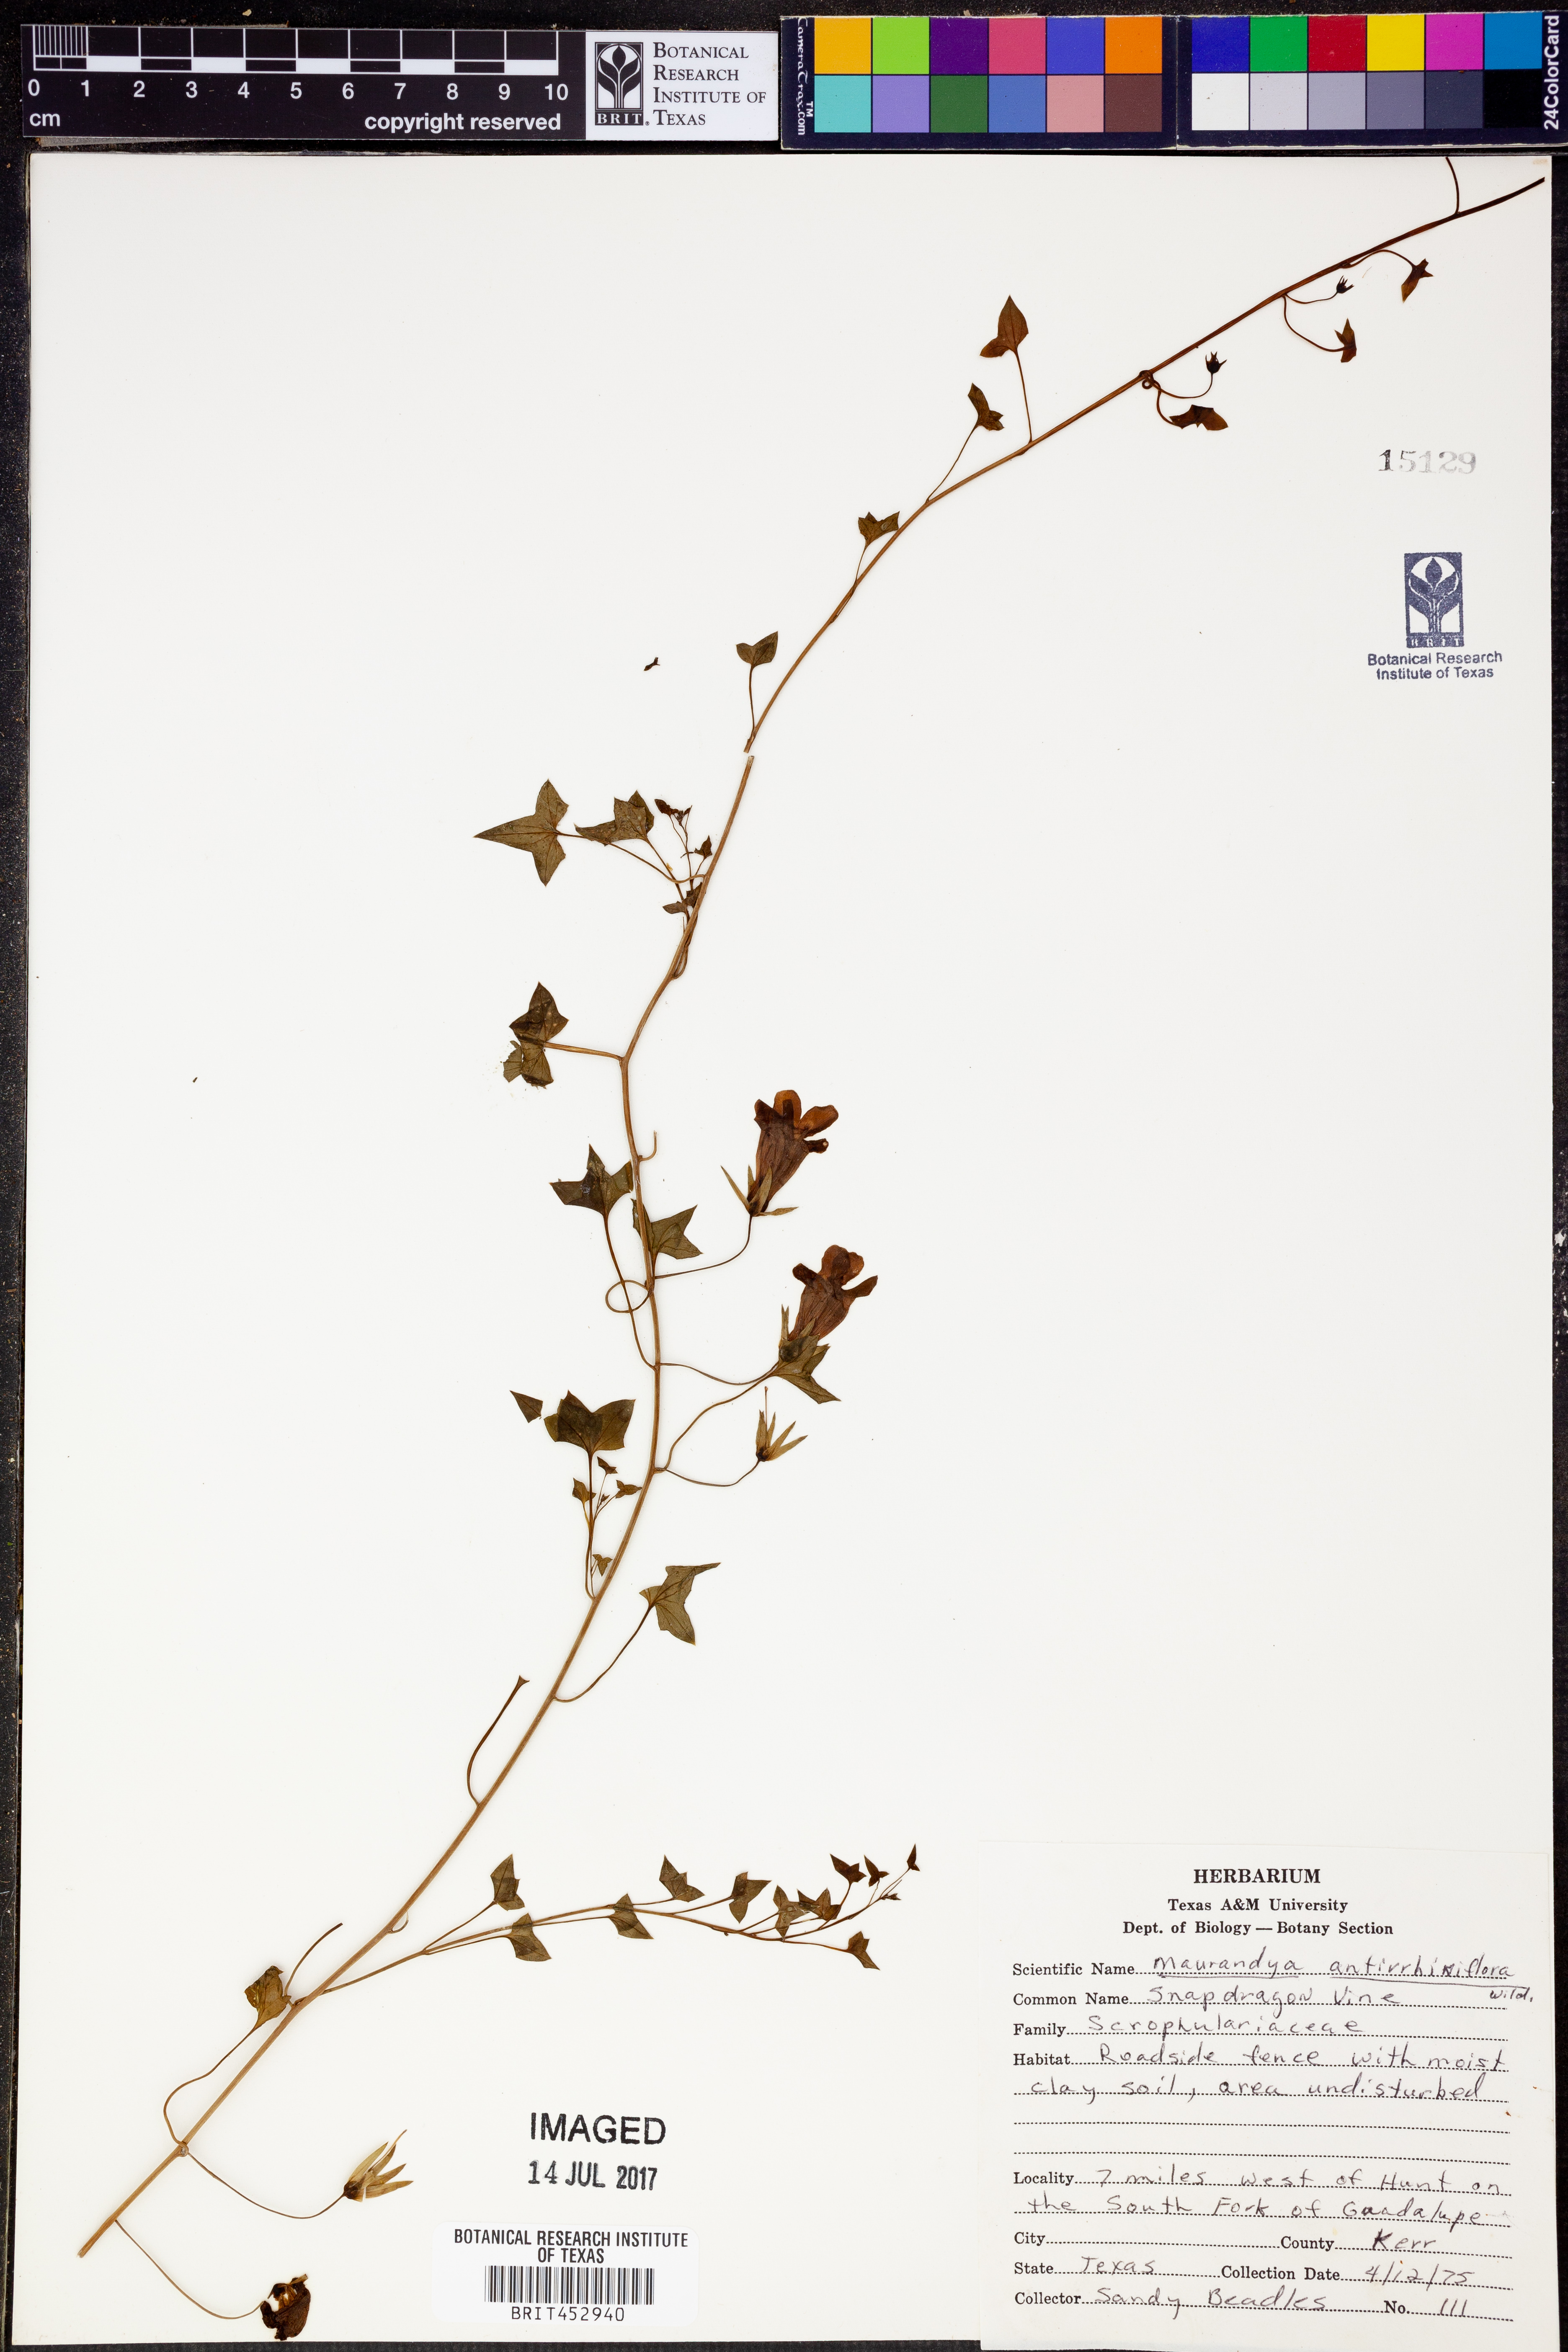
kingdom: Plantae
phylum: Tracheophyta
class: Magnoliopsida
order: Lamiales
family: Plantaginaceae
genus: Maurandella
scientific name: Maurandella antirrhiniflora
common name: Violet twining-snapdragon
